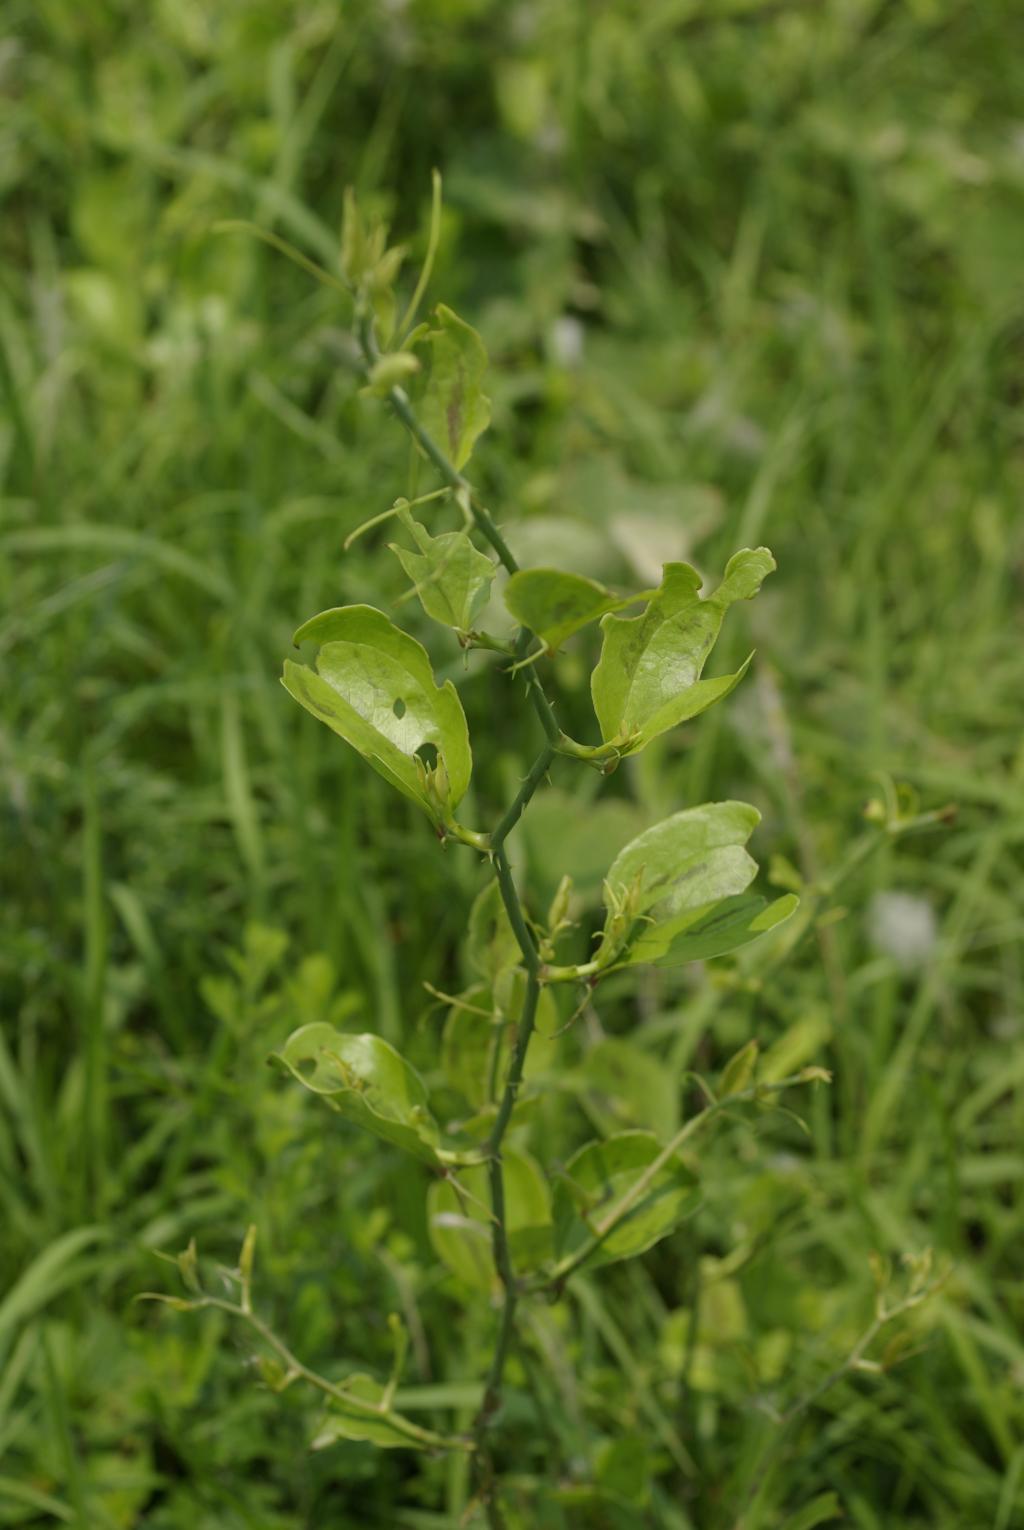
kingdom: Plantae
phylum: Tracheophyta
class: Liliopsida
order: Liliales
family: Smilacaceae
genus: Smilax
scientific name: Smilax china
